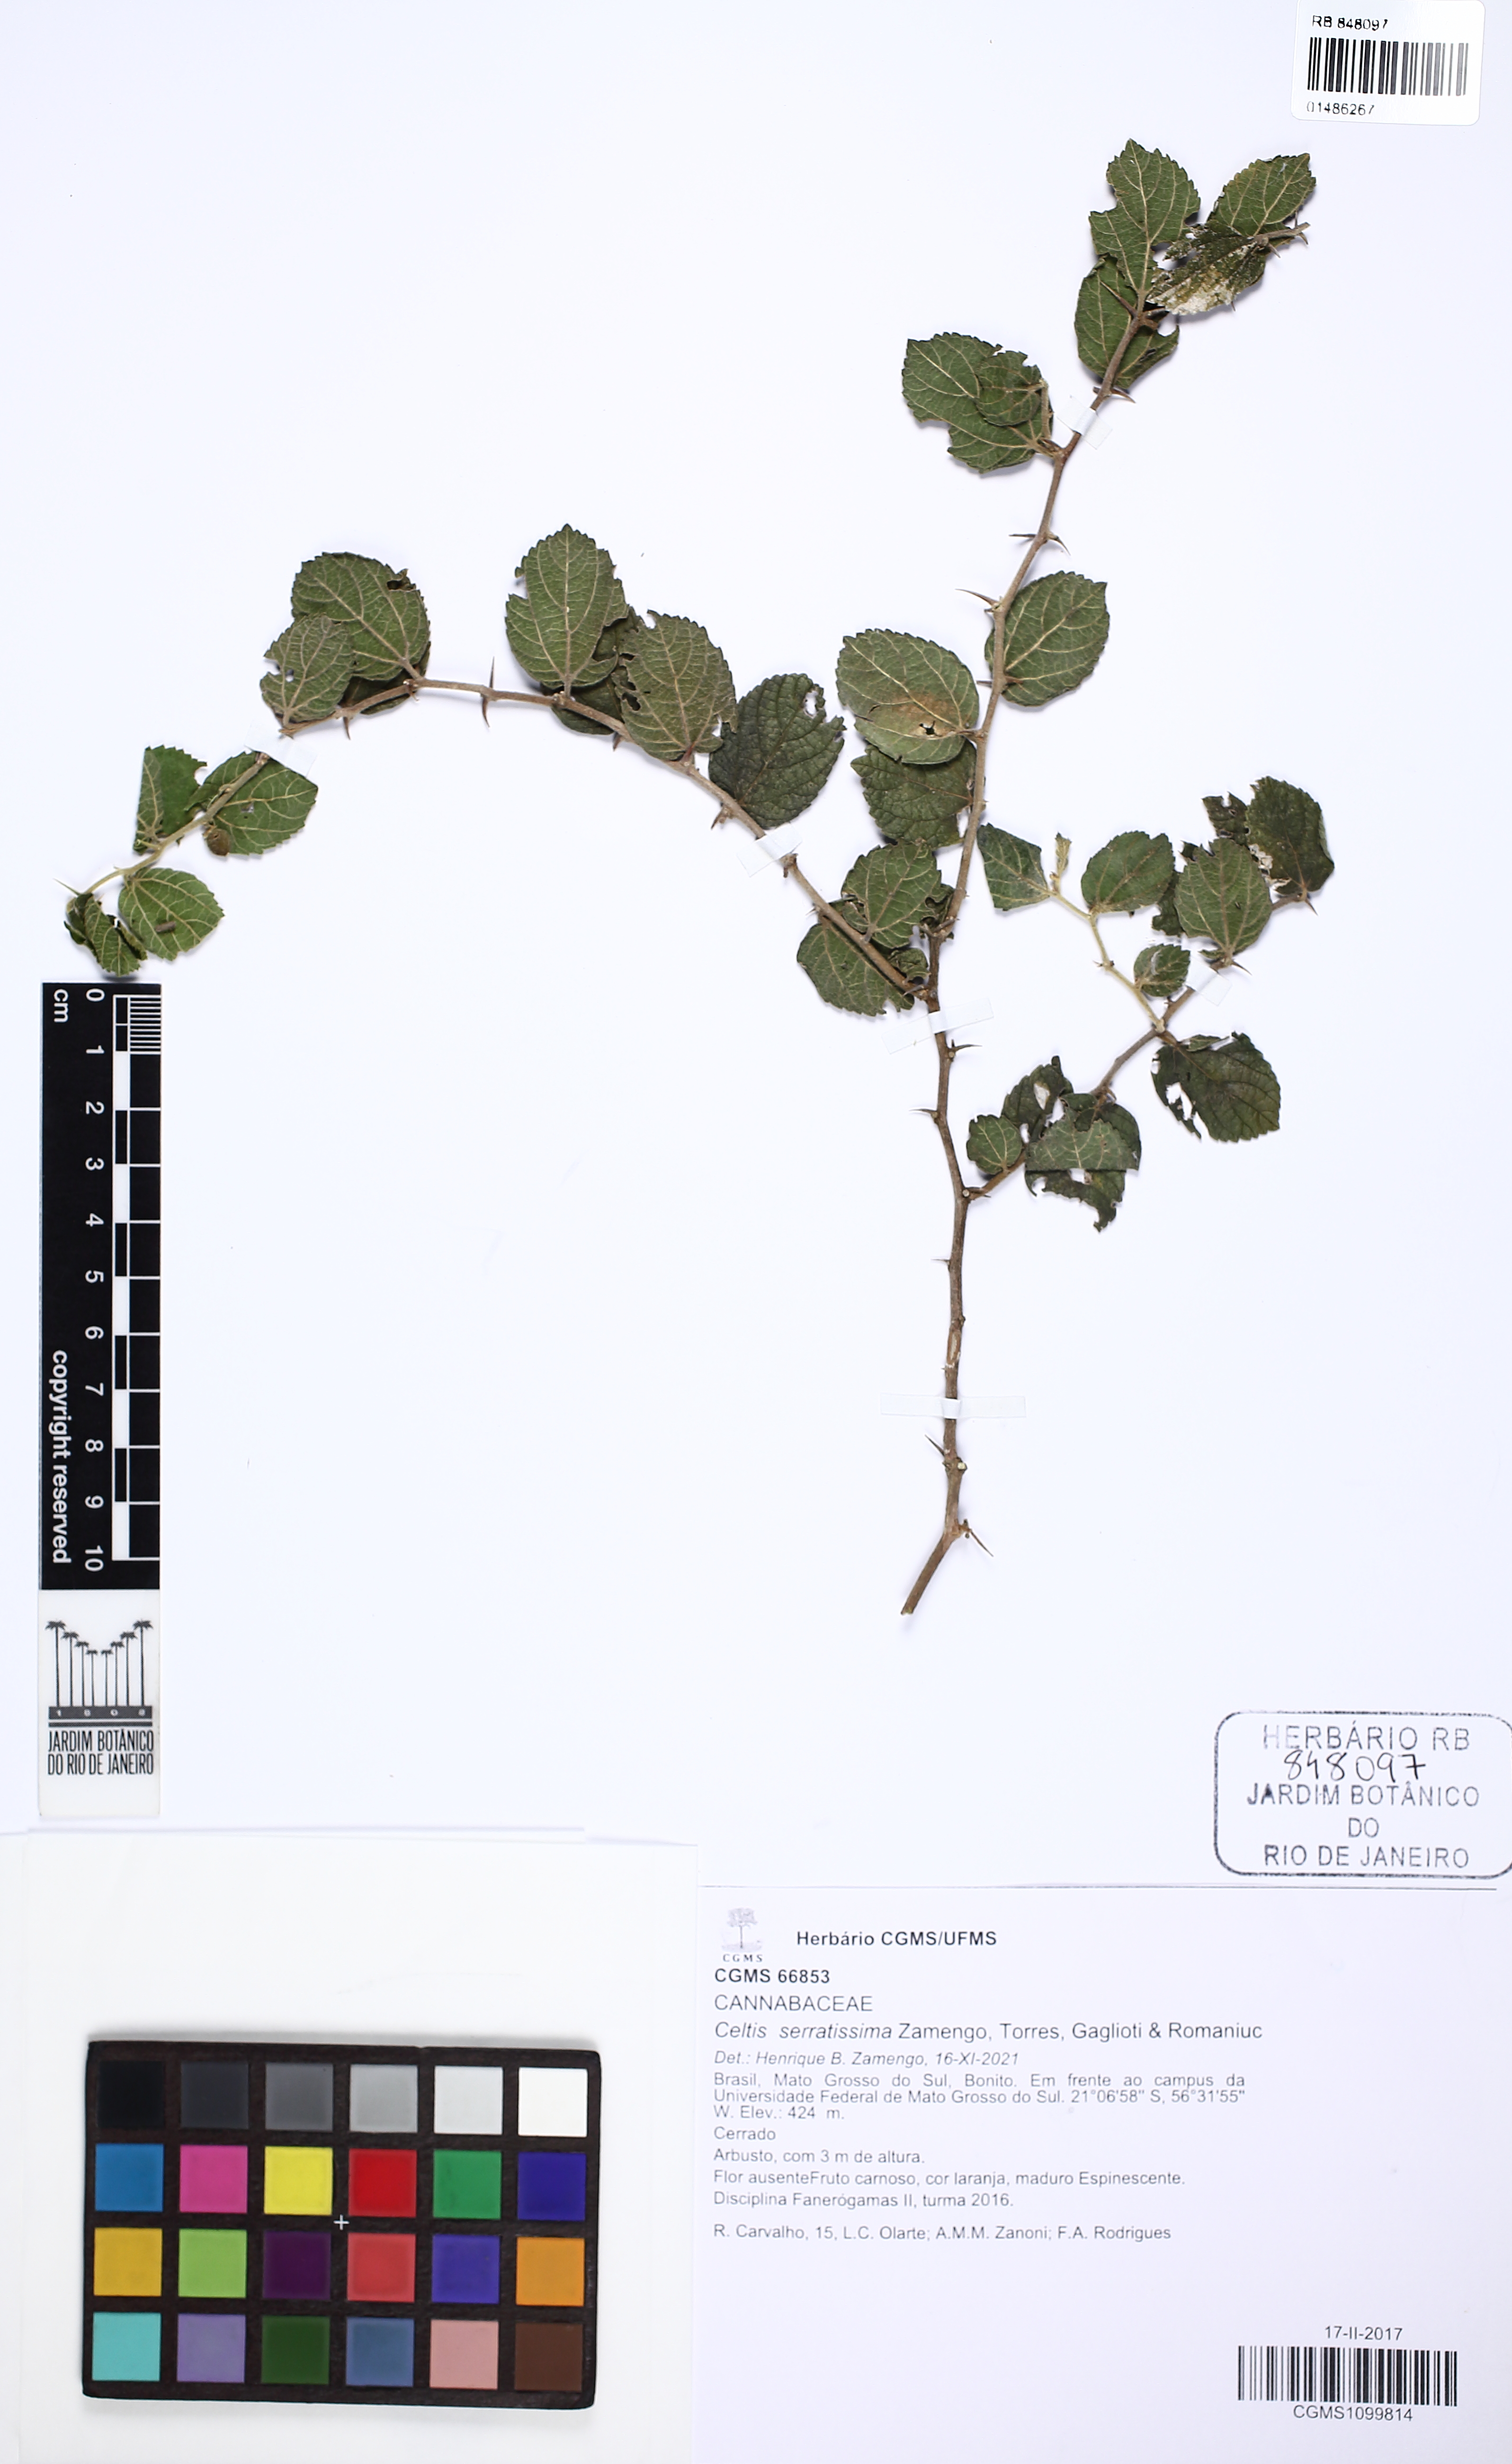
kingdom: Plantae
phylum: Tracheophyta
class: Magnoliopsida
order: Rosales
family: Cannabaceae
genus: Celtis
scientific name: Celtis serratissima
